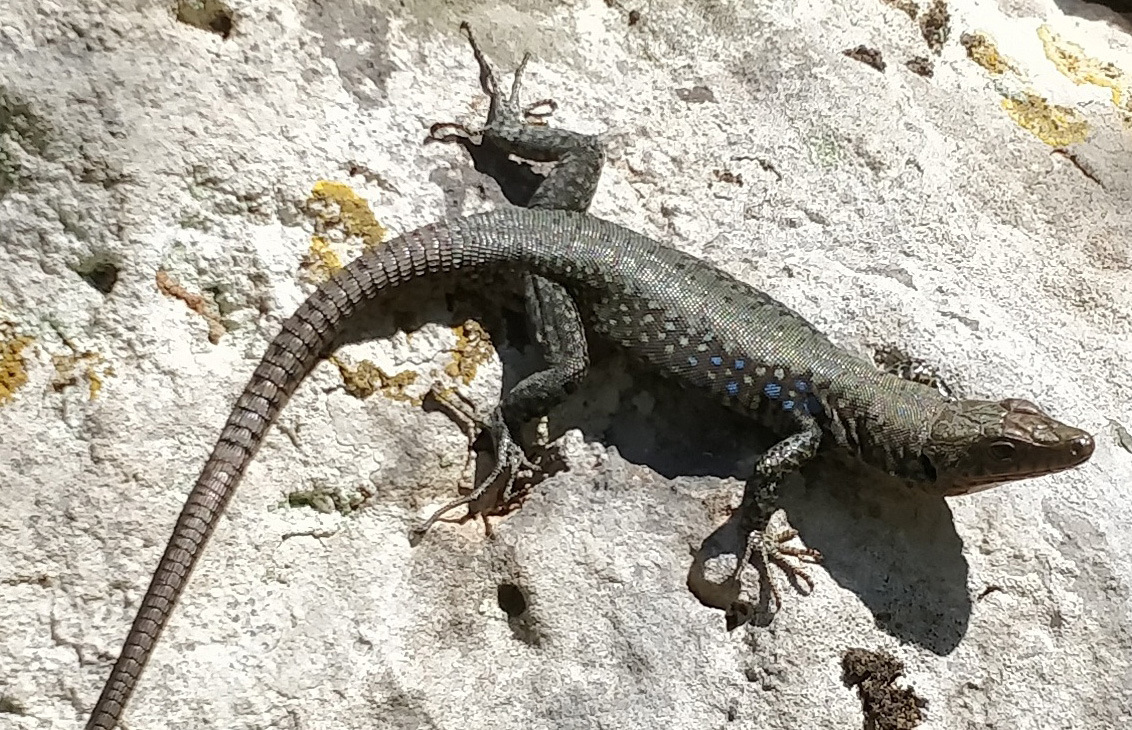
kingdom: Animalia
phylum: Chordata
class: Squamata
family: Lacertidae
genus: Hellenolacerta
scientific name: Hellenolacerta graeca
